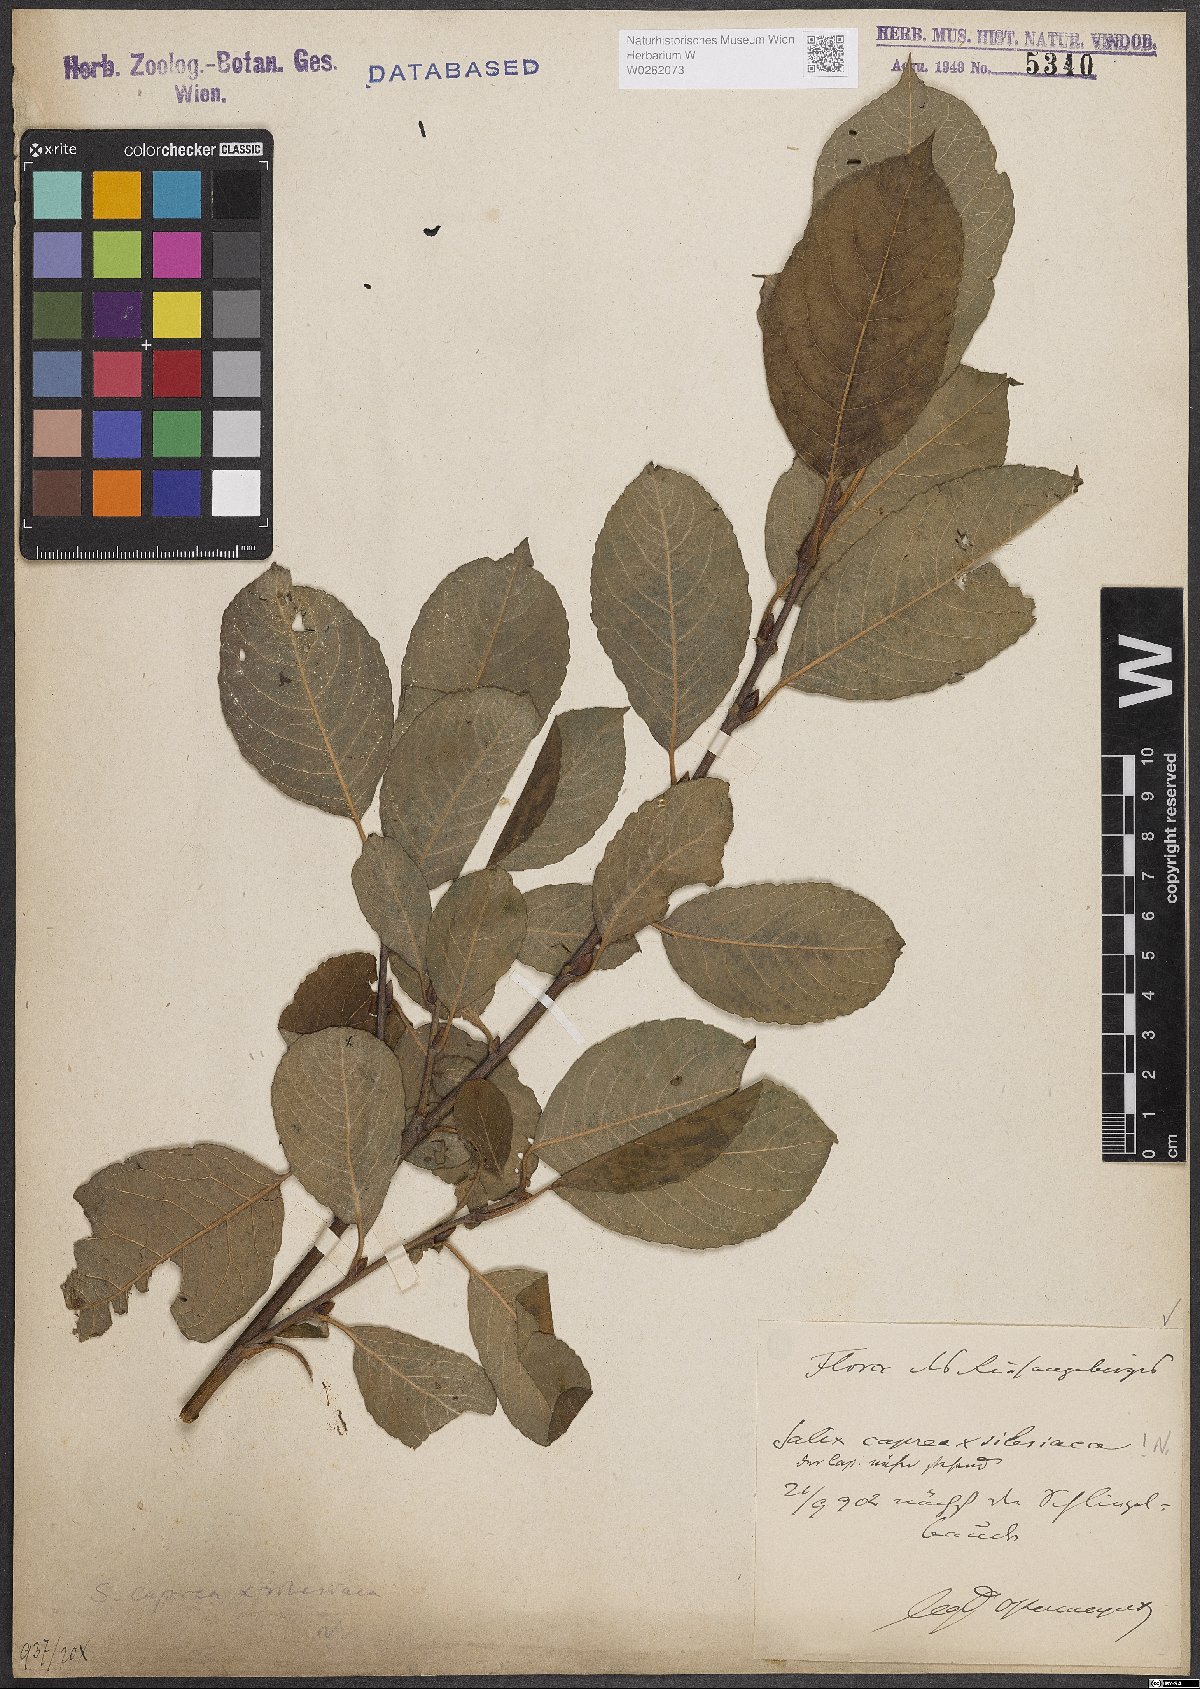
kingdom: Plantae
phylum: Tracheophyta
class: Magnoliopsida
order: Malpighiales
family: Salicaceae
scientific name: Salicaceae
